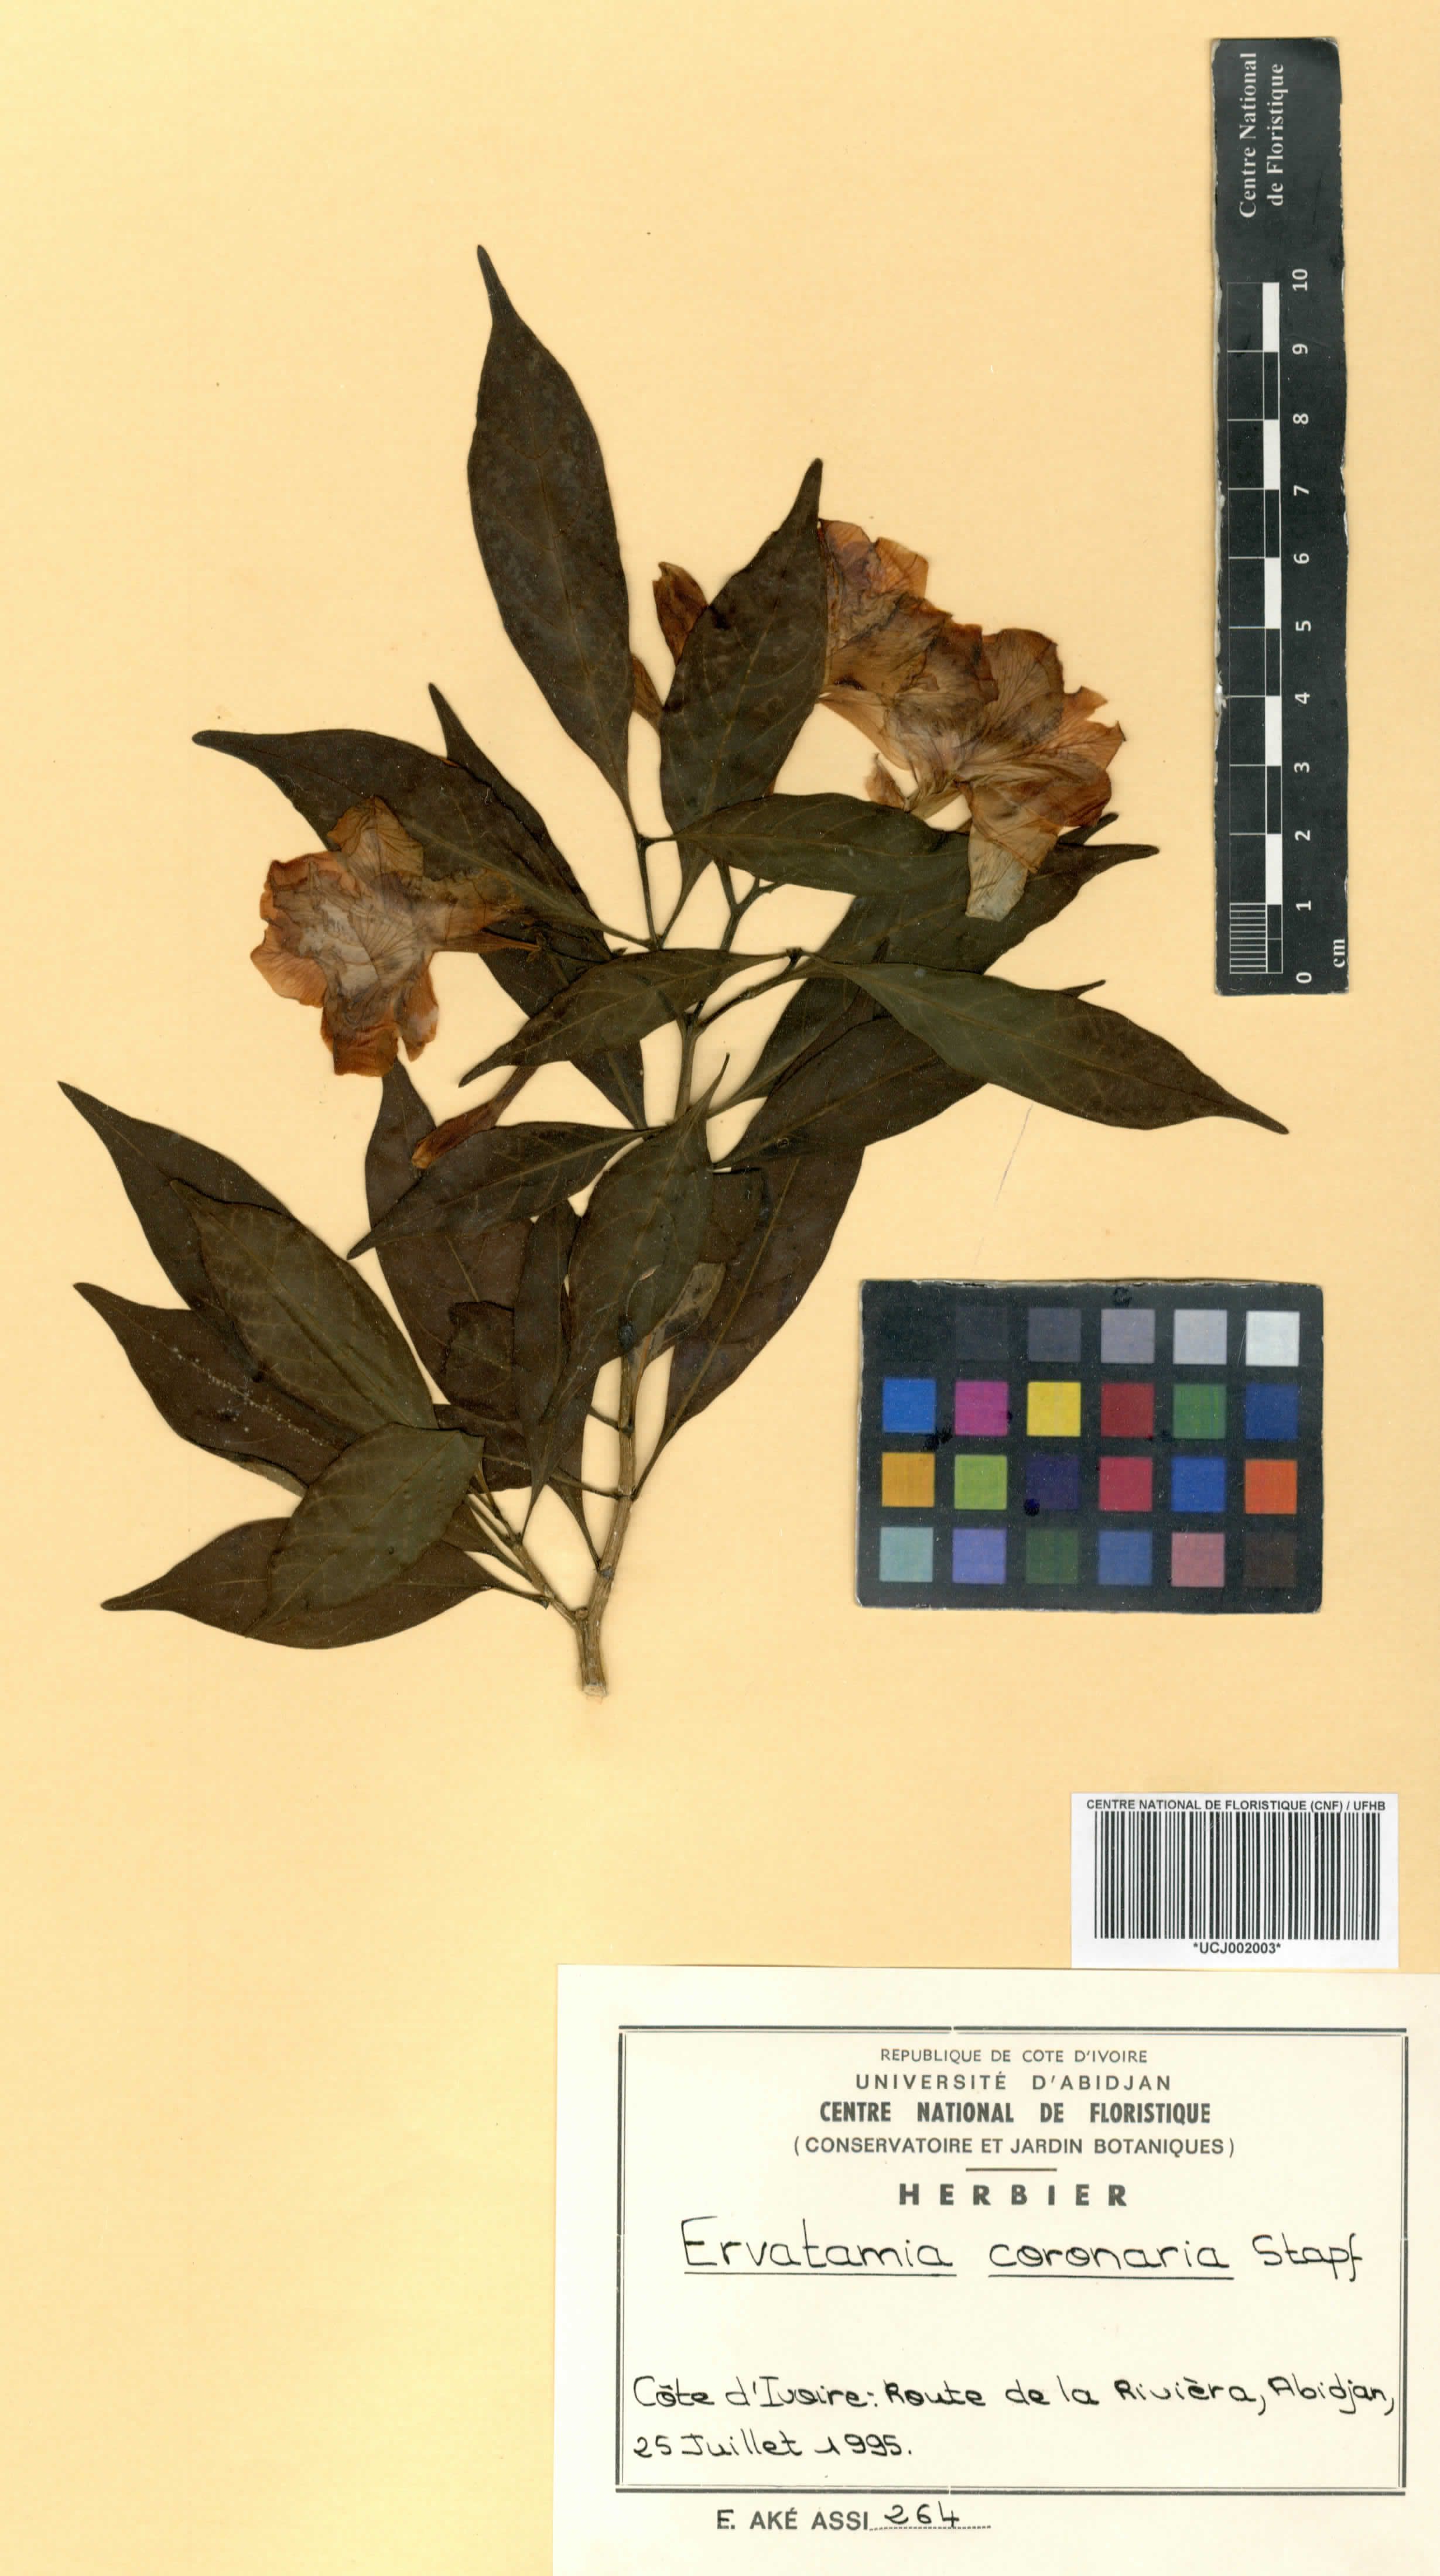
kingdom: Plantae
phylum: Tracheophyta
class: Magnoliopsida
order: Gentianales
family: Apocynaceae
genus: Tabernaemontana
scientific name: Tabernaemontana divaricata
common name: Pinwheelflower
